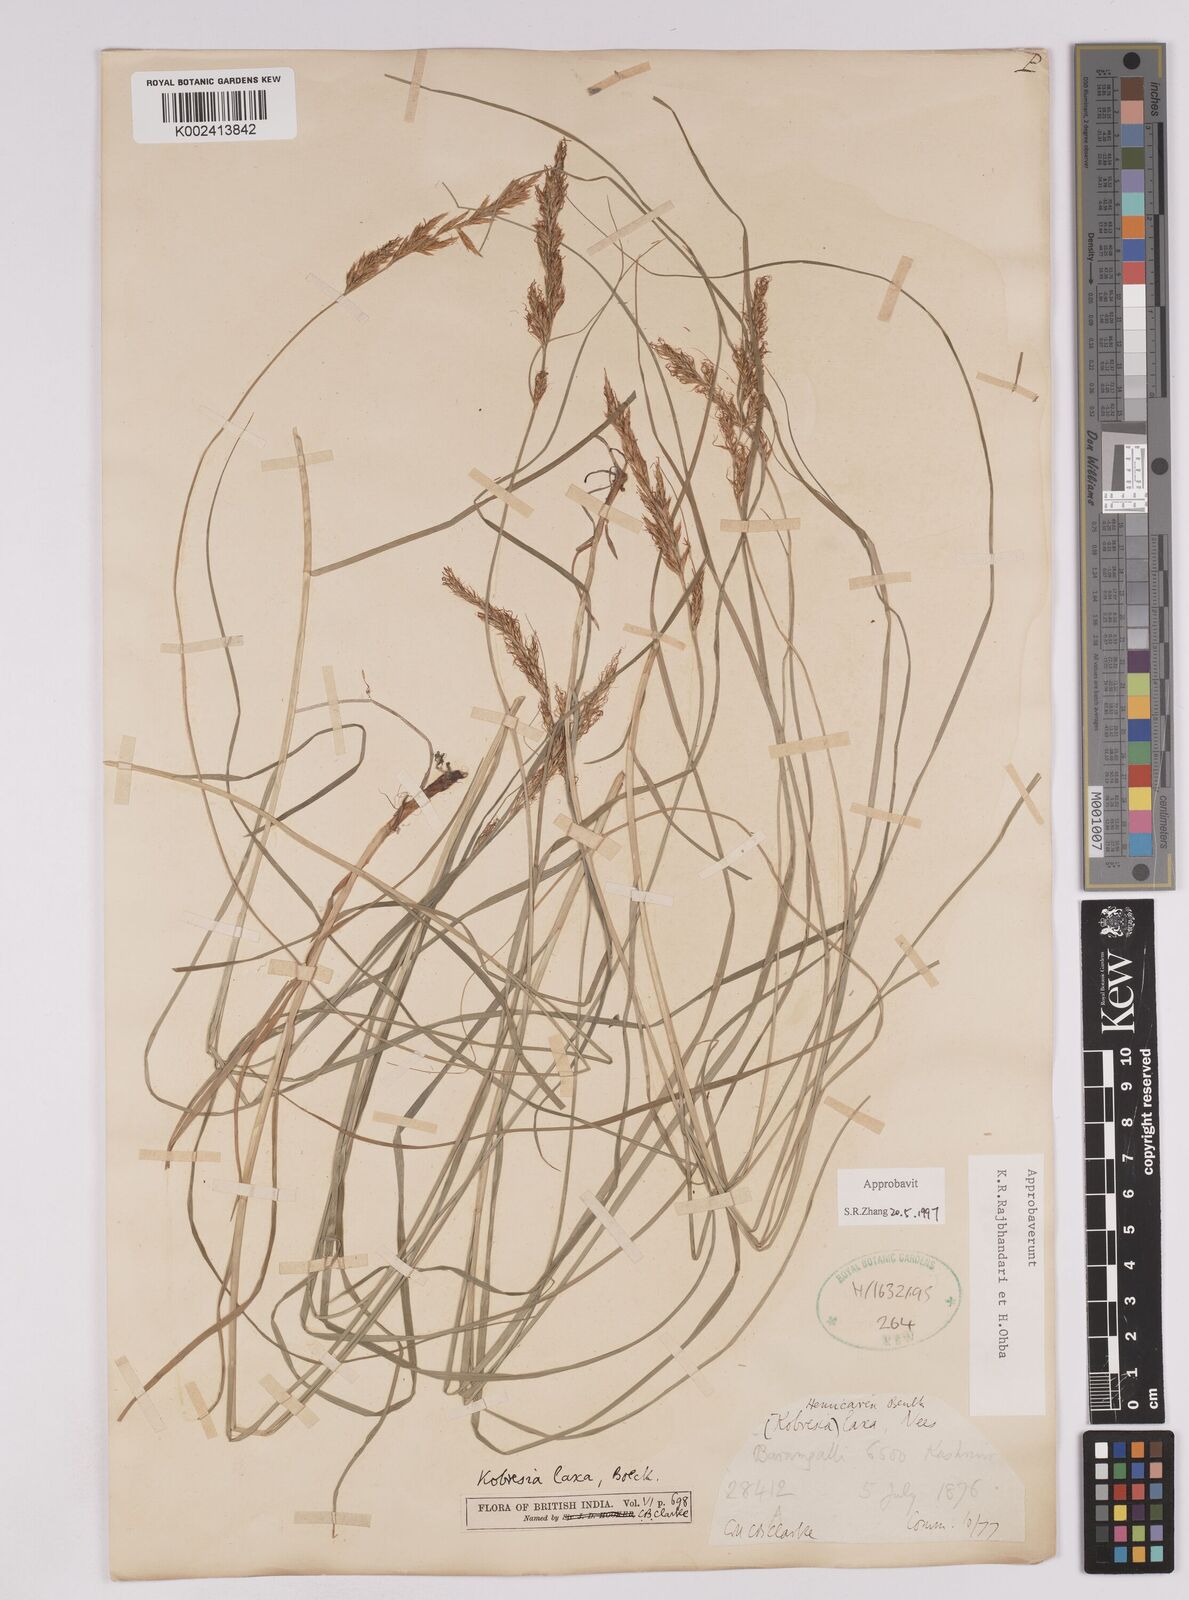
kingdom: Plantae
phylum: Tracheophyta
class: Liliopsida
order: Poales
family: Cyperaceae
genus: Carex
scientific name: Carex
